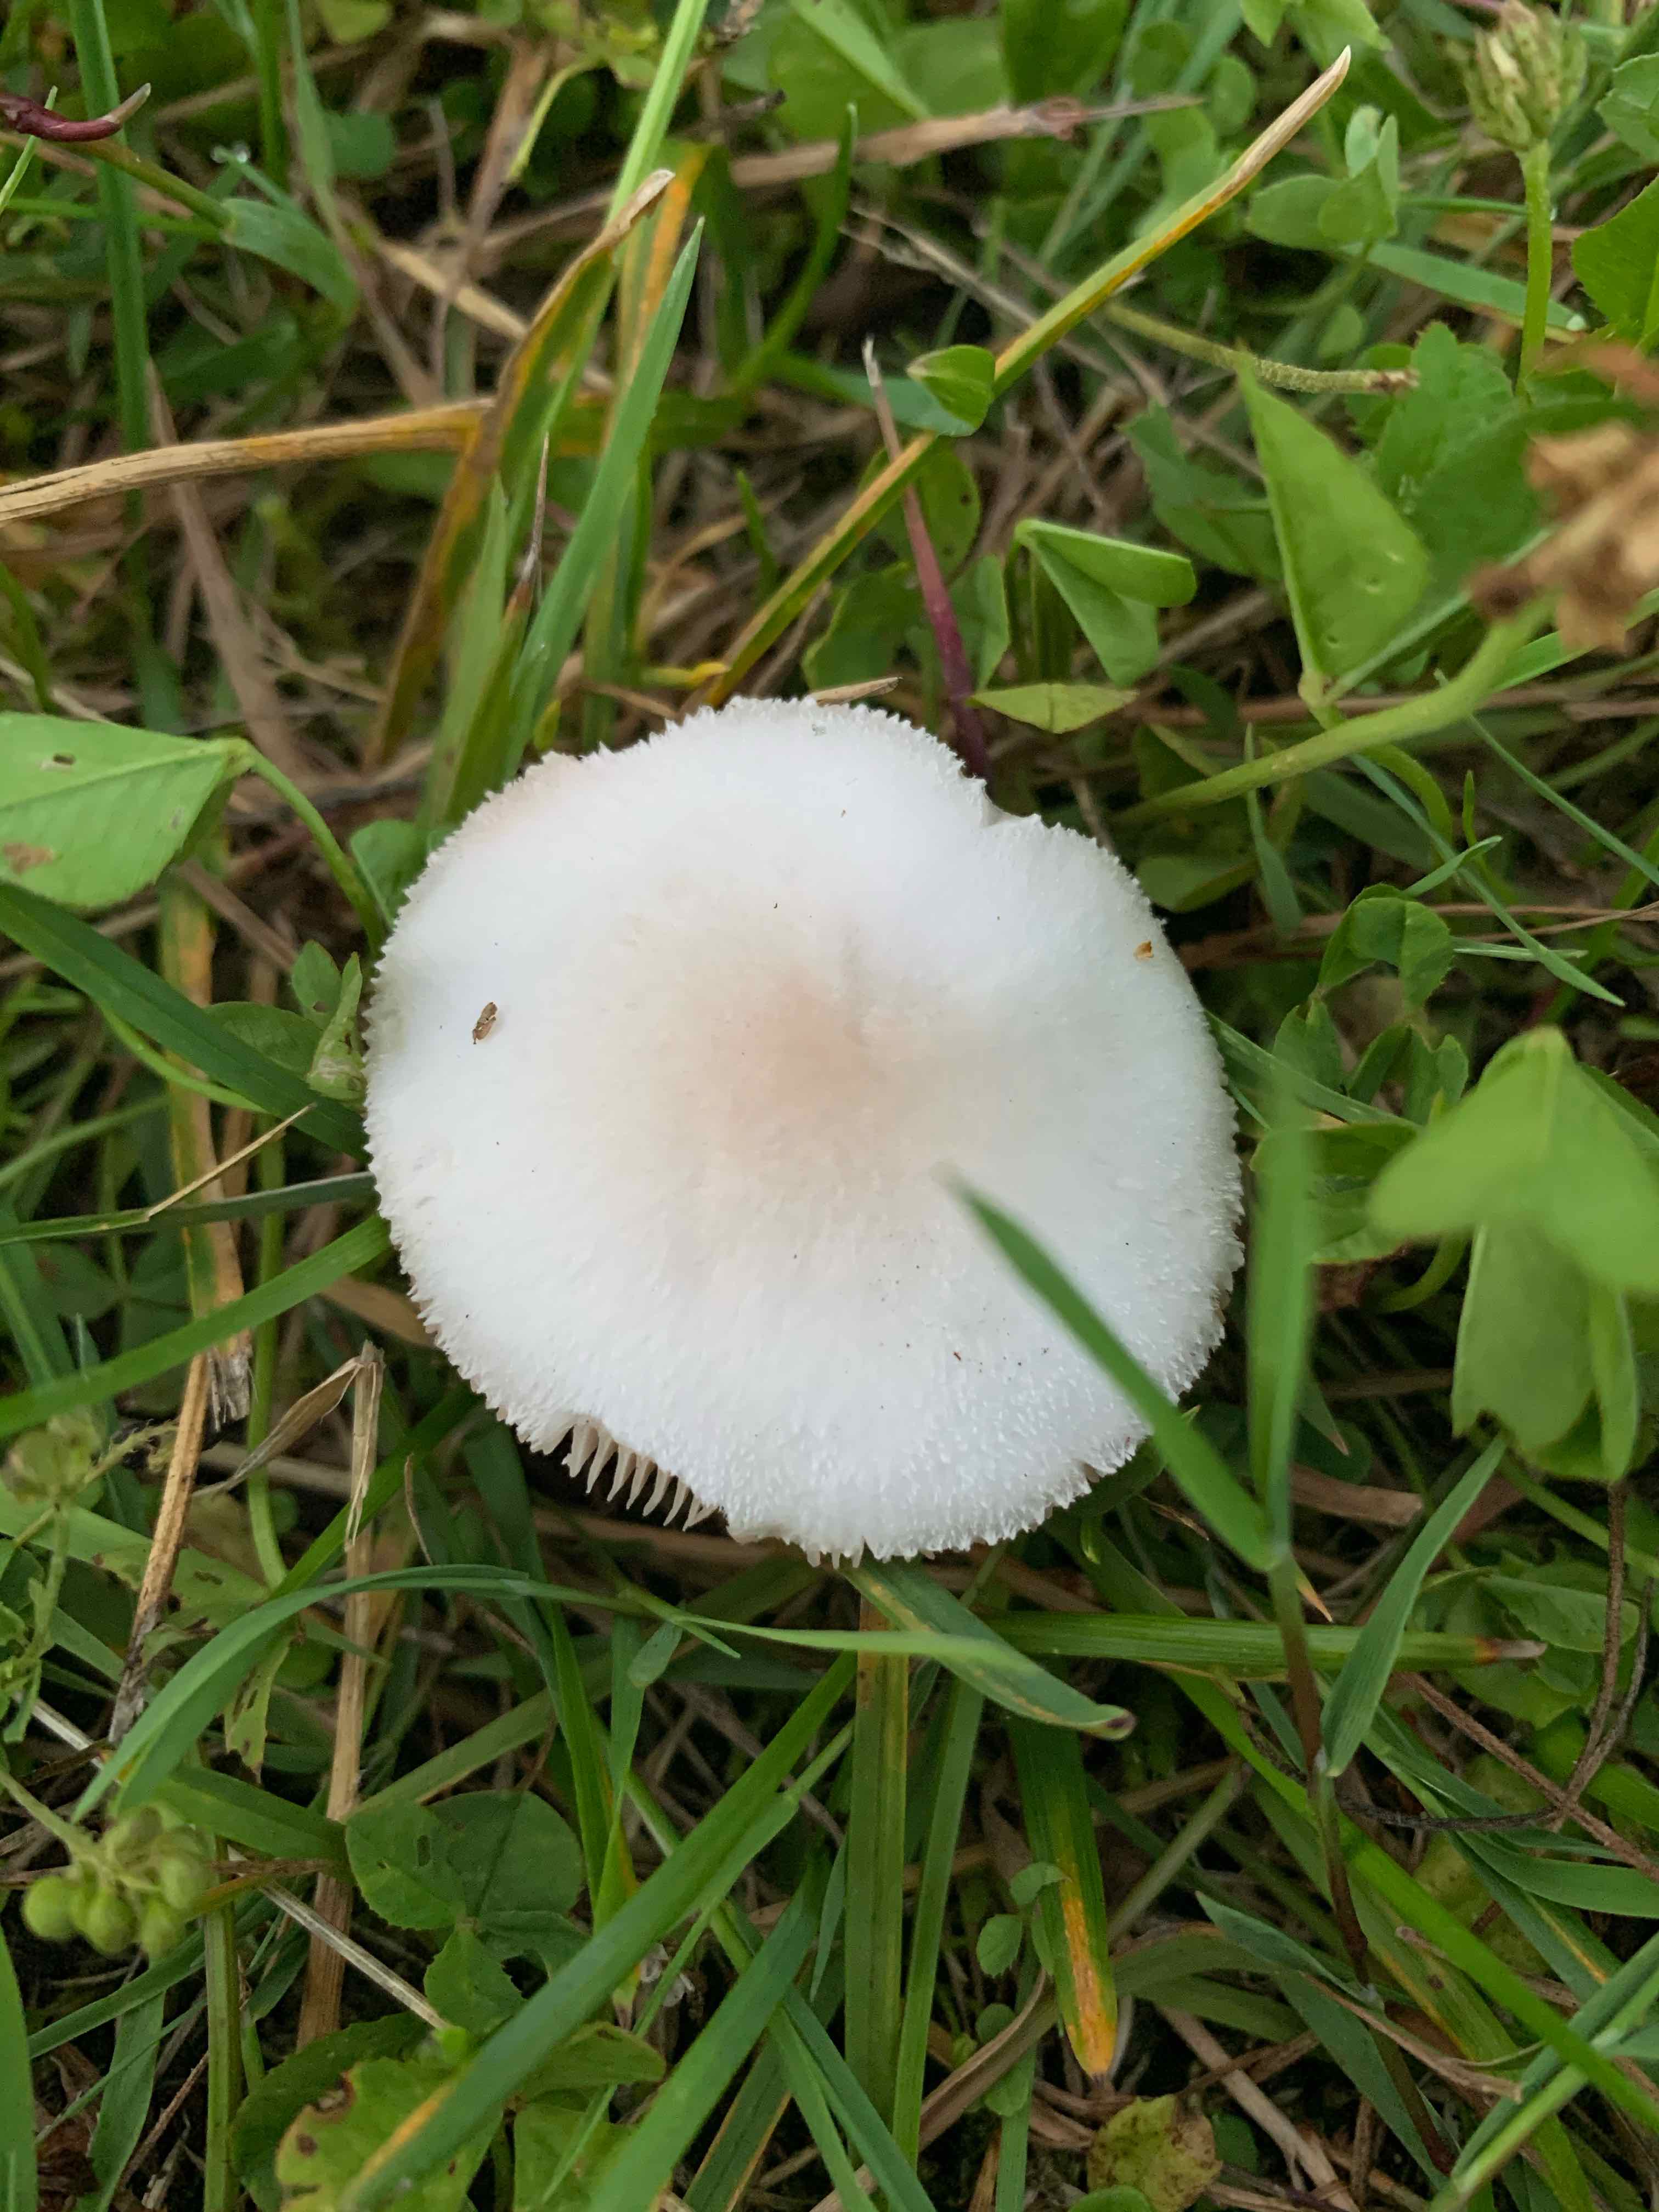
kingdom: Fungi
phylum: Basidiomycota
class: Agaricomycetes
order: Agaricales
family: Pluteaceae
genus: Volvopluteus
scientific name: Volvopluteus gloiocephalus
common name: høj posesvamp
